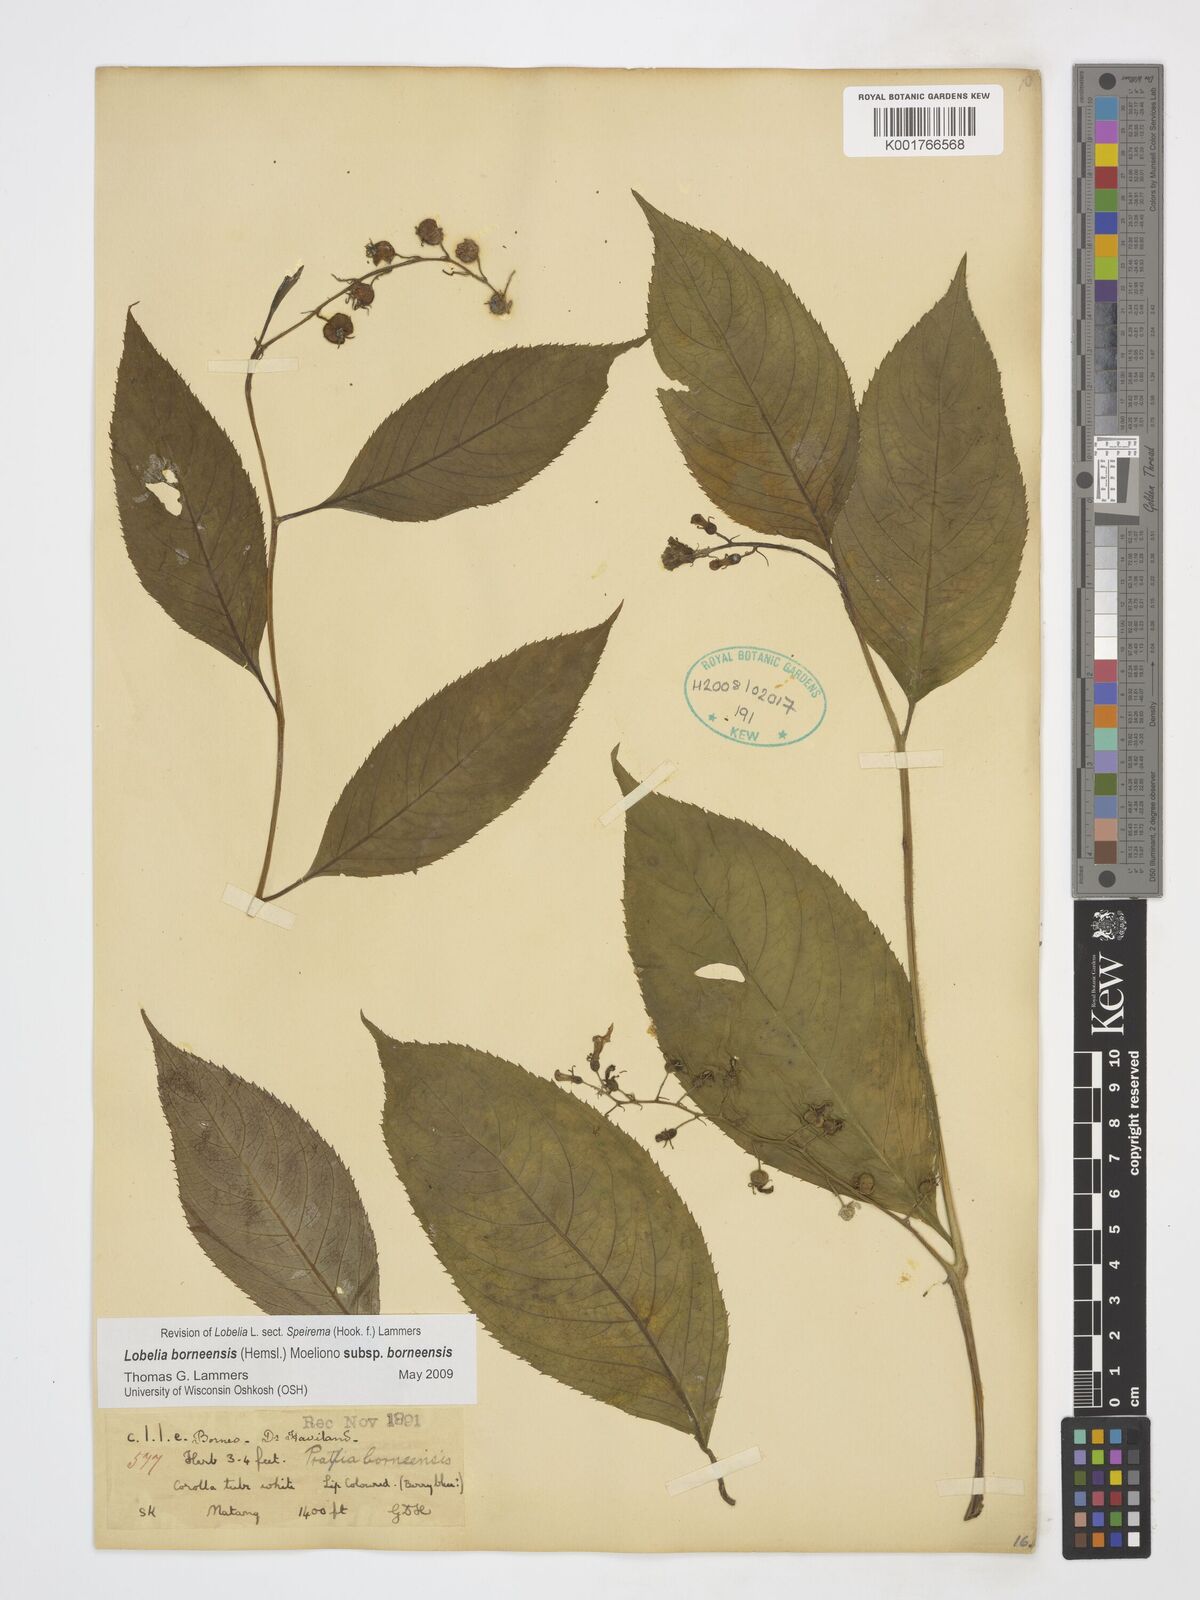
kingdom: Plantae
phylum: Tracheophyta
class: Magnoliopsida
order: Asterales
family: Campanulaceae
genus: Lobelia
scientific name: Lobelia borneensis
